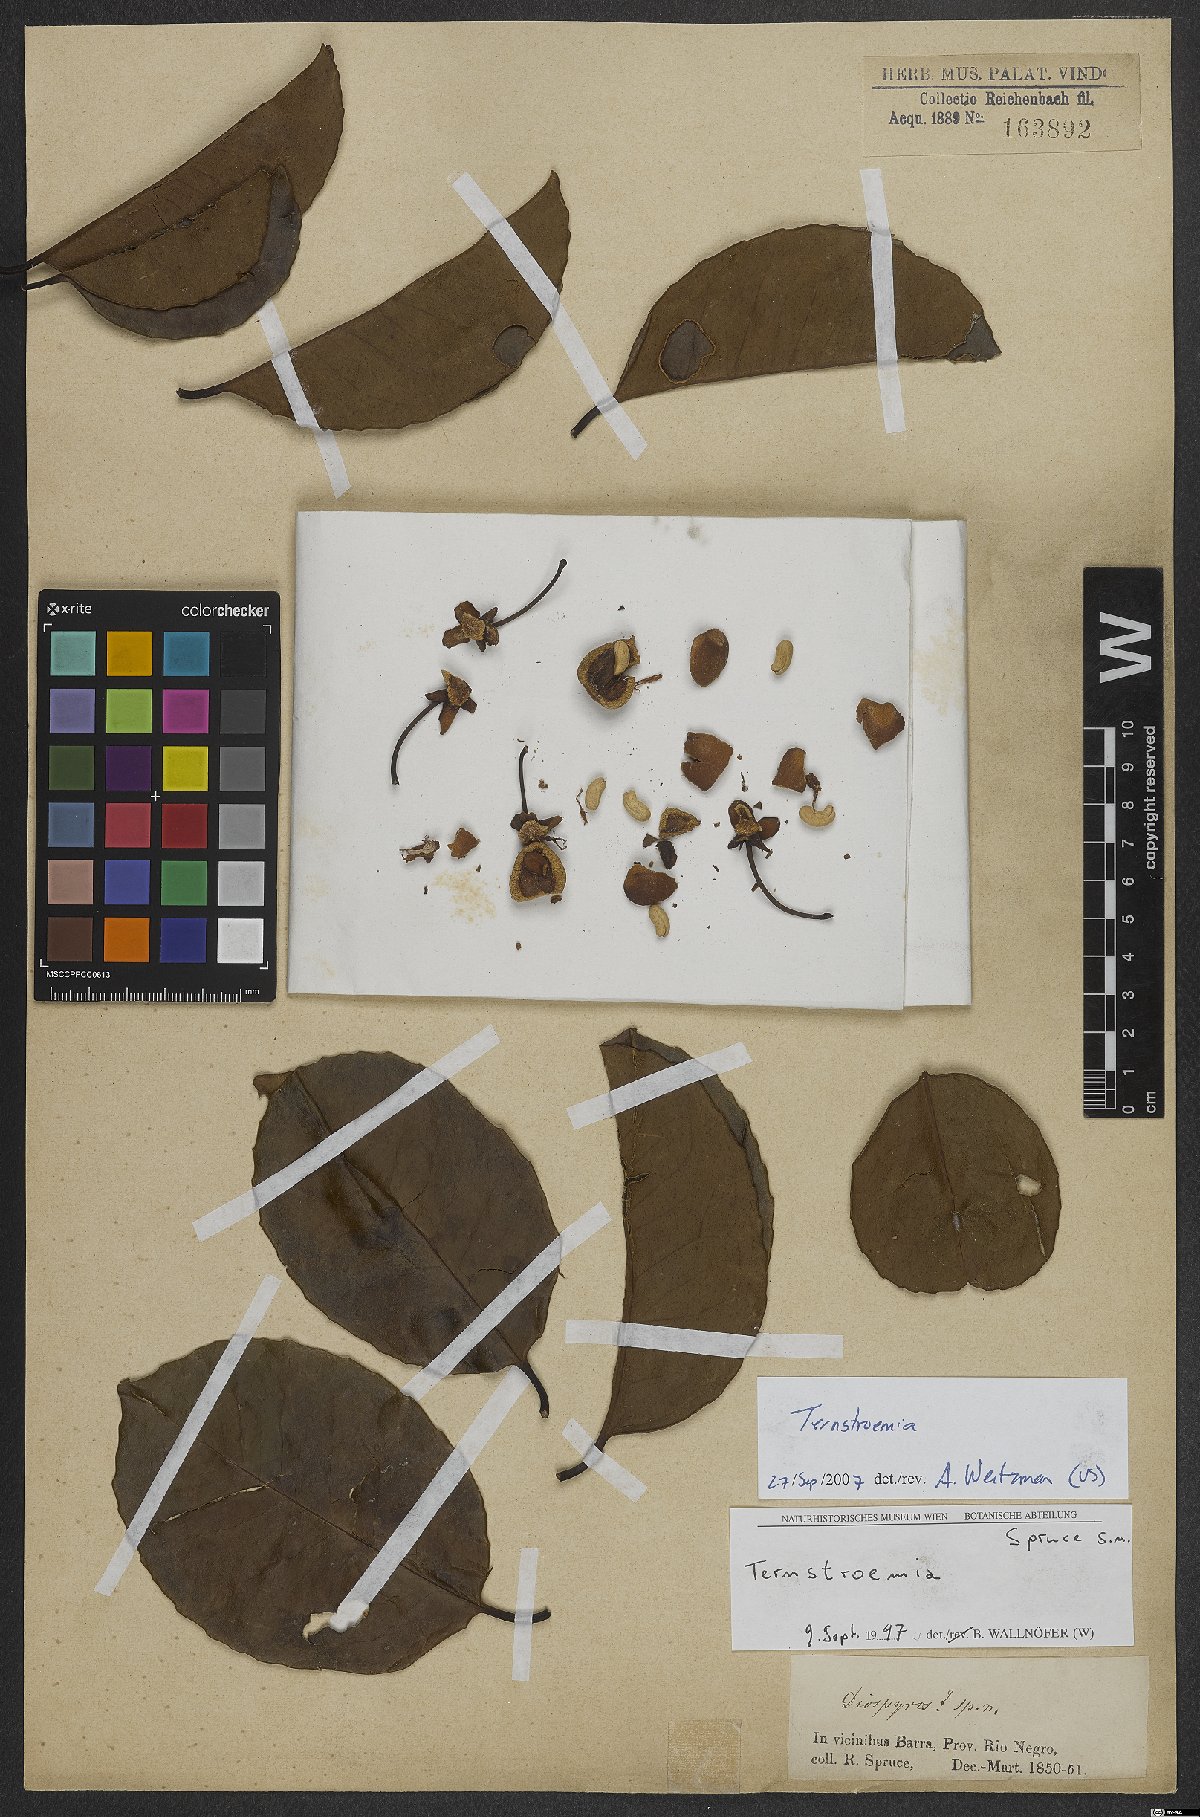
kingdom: Plantae
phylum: Tracheophyta
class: Magnoliopsida
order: Ericales
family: Pentaphylacaceae
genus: Ternstroemia
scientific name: Ternstroemia
